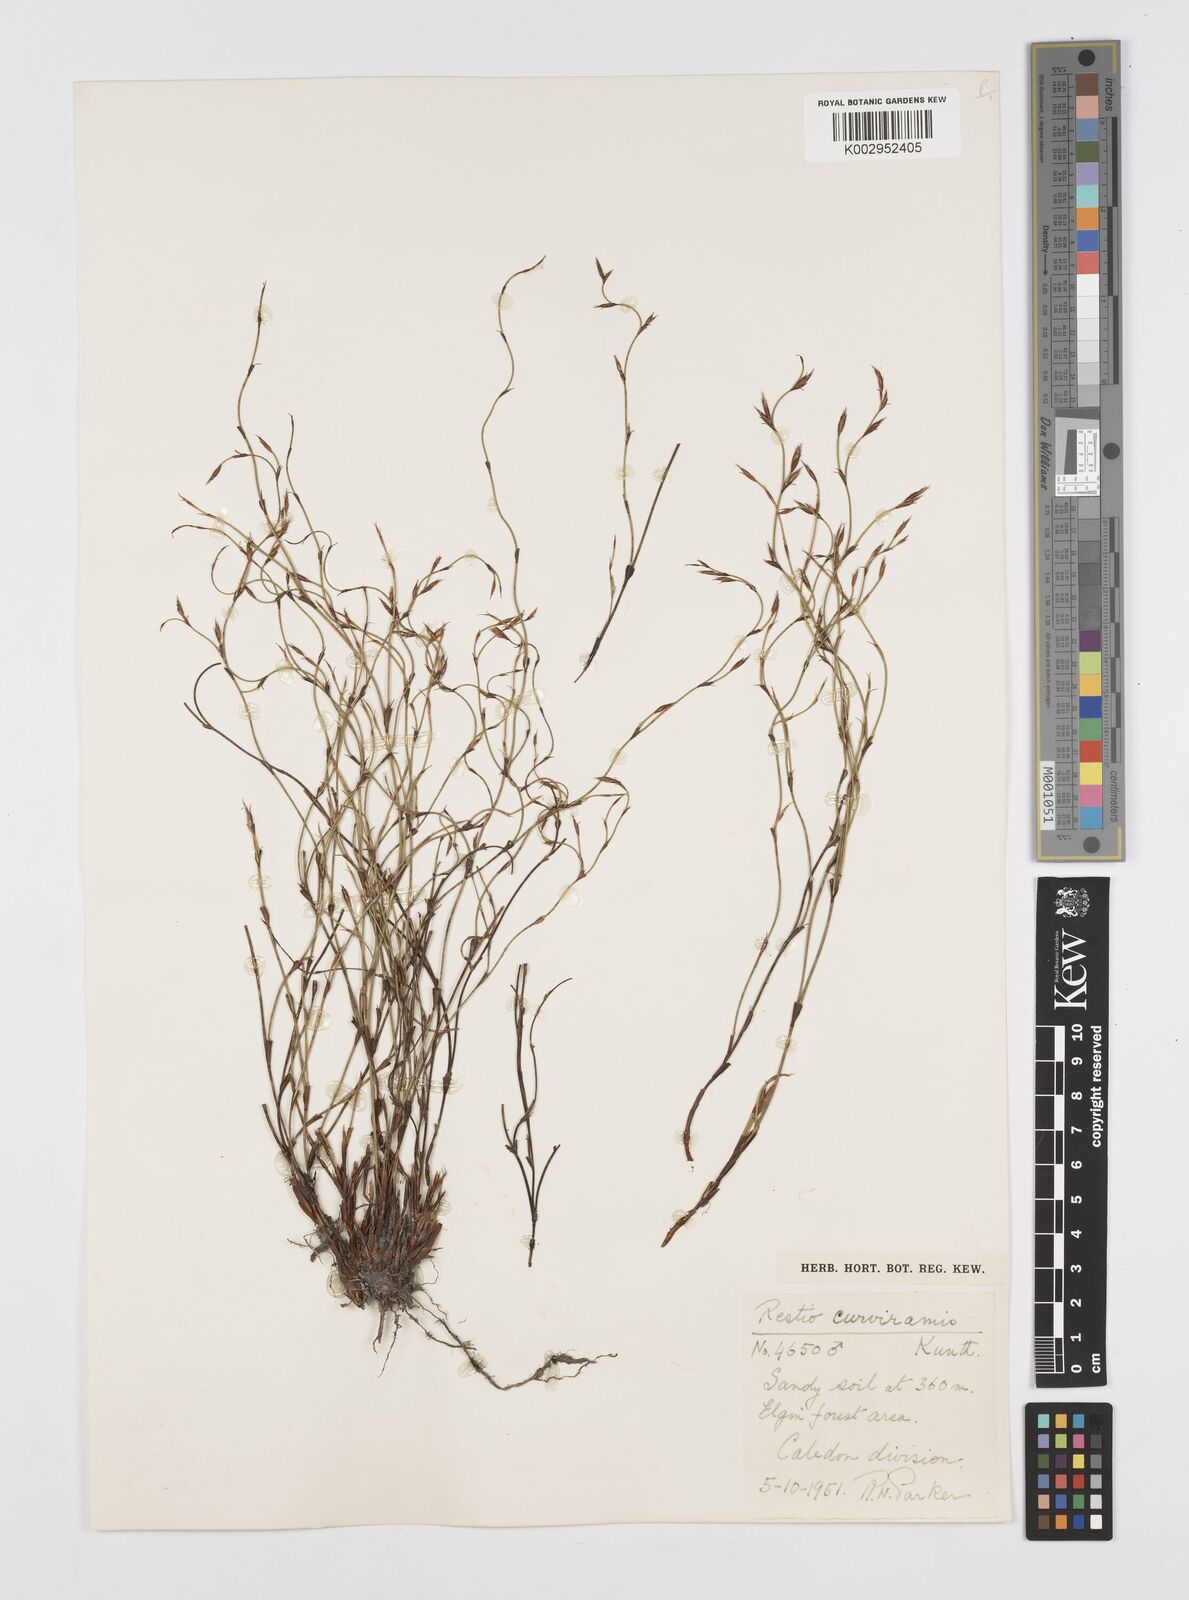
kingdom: Plantae
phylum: Tracheophyta
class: Liliopsida
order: Poales
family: Restionaceae
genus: Restio
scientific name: Restio curviramis
